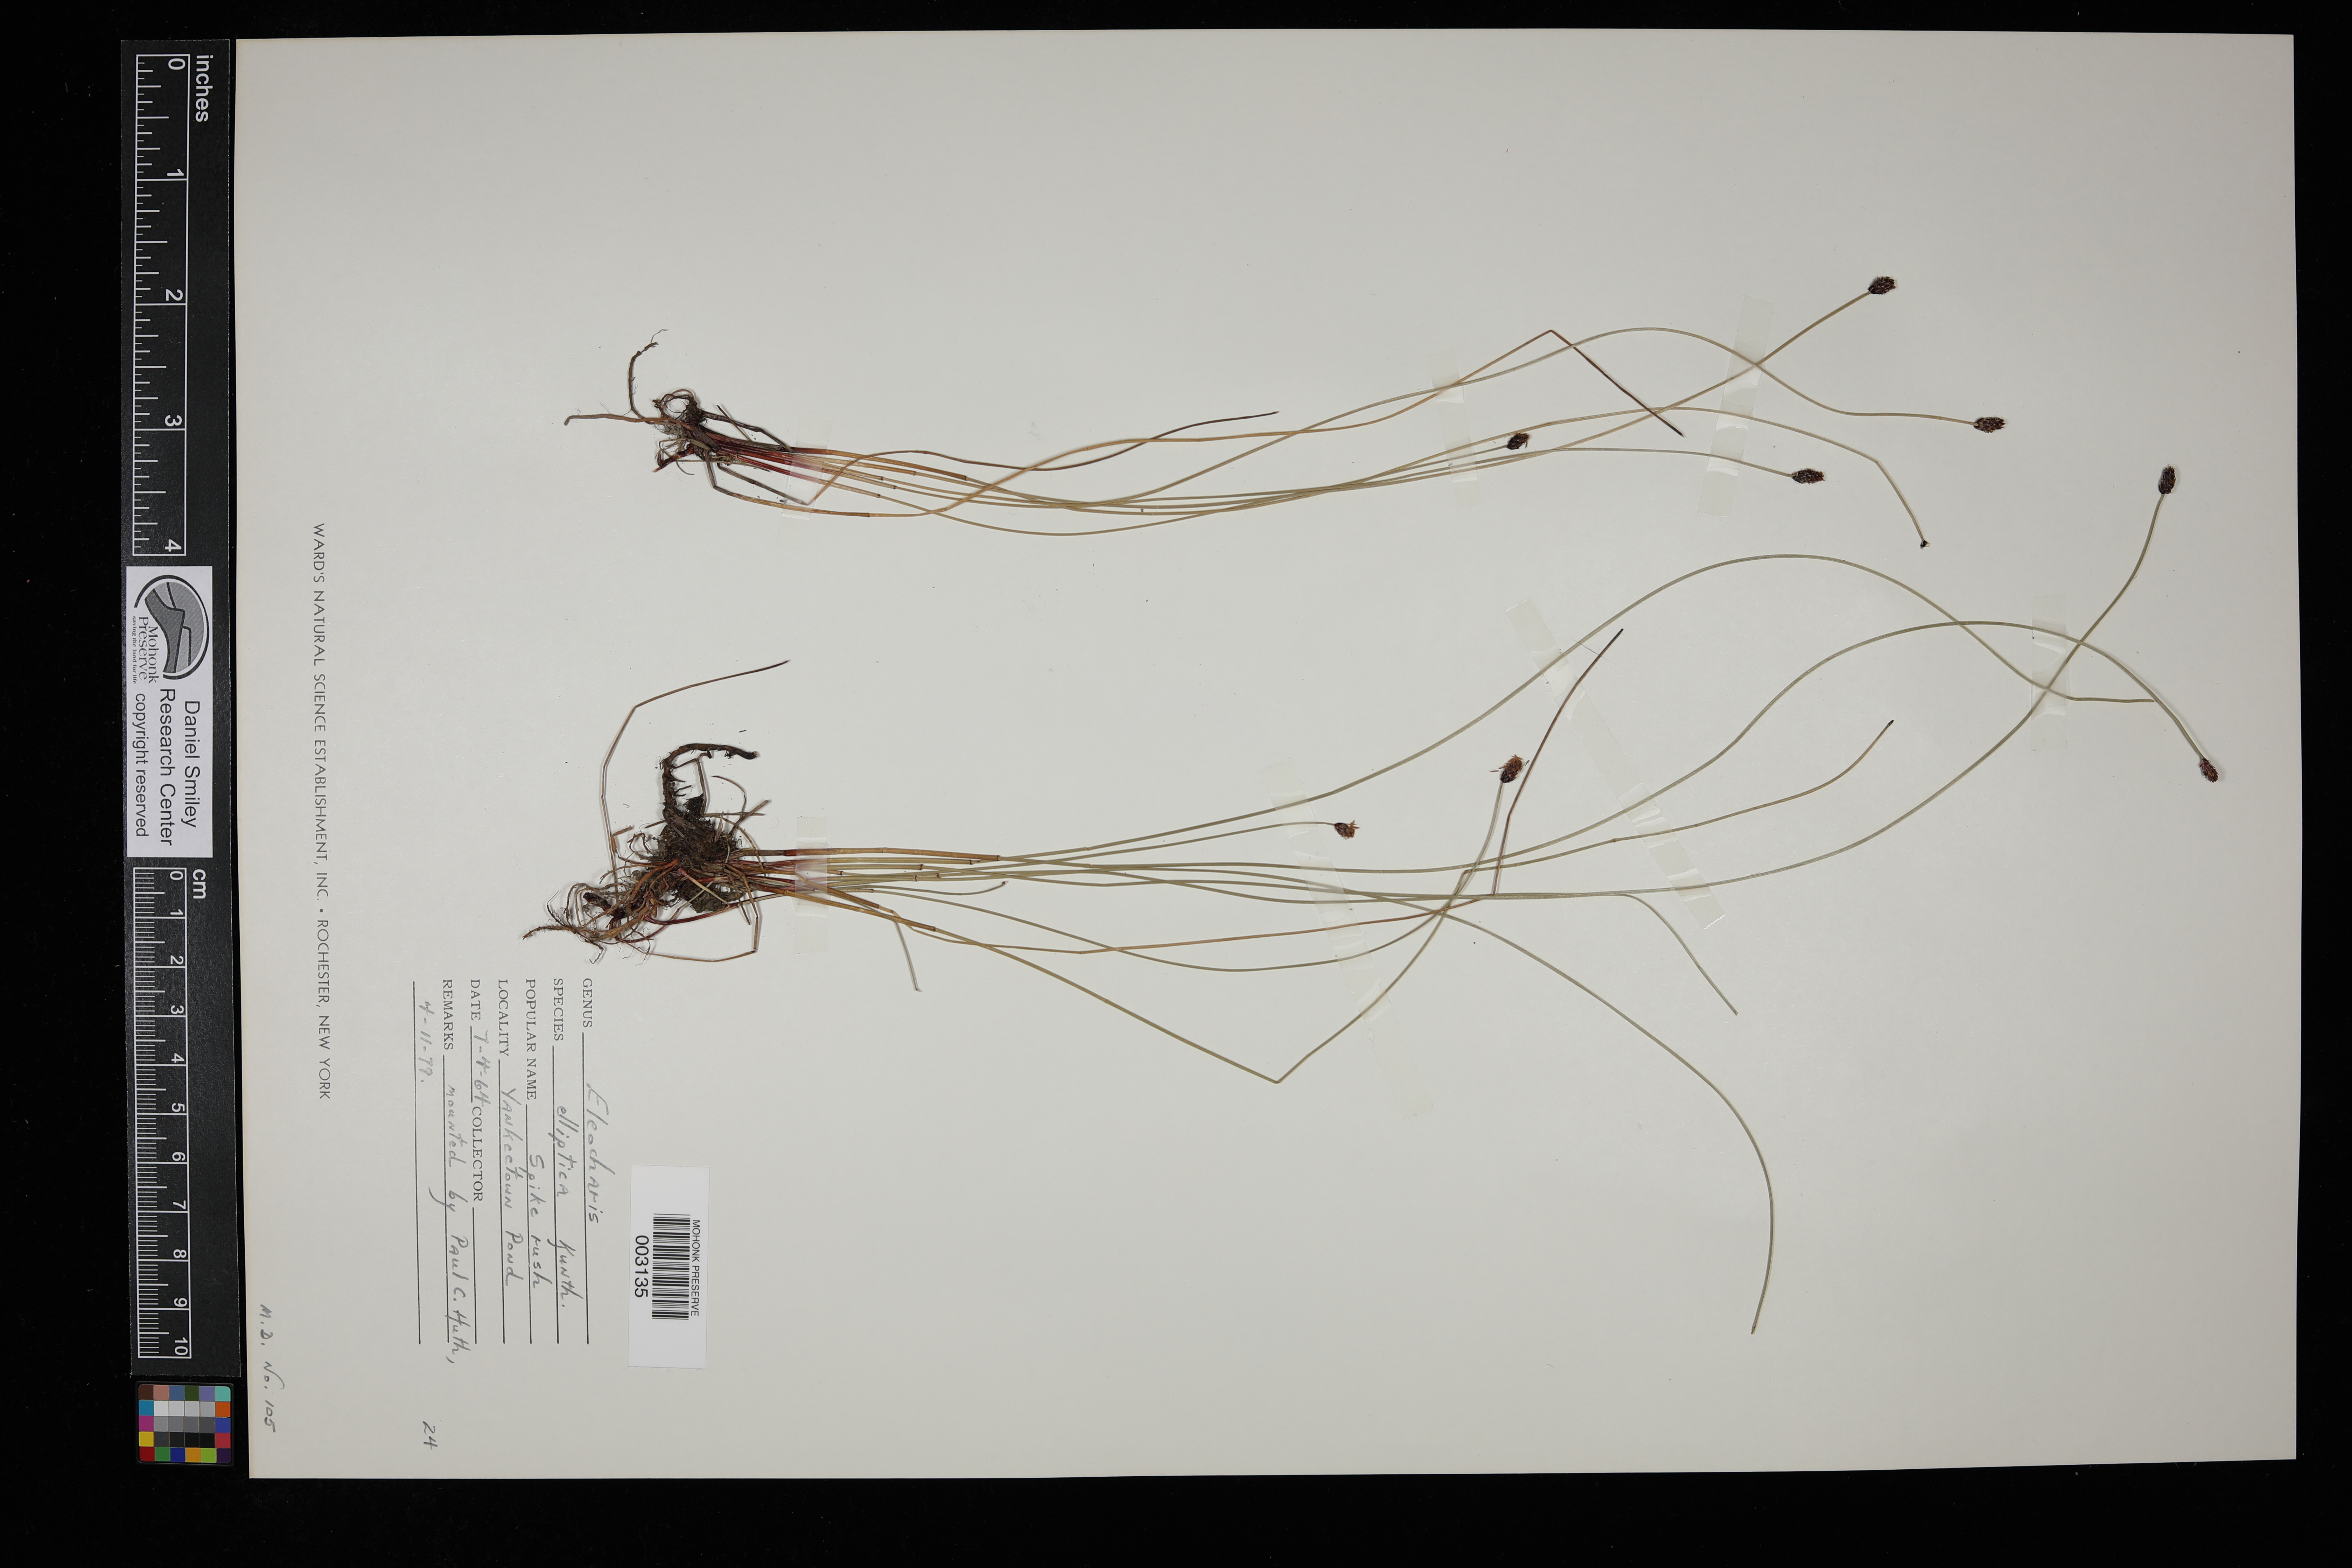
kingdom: Plantae
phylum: Tracheophyta
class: Liliopsida
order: Poales
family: Cyperaceae
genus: Eleocharis
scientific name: Eleocharis elliptica
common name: Capitate spikerush
